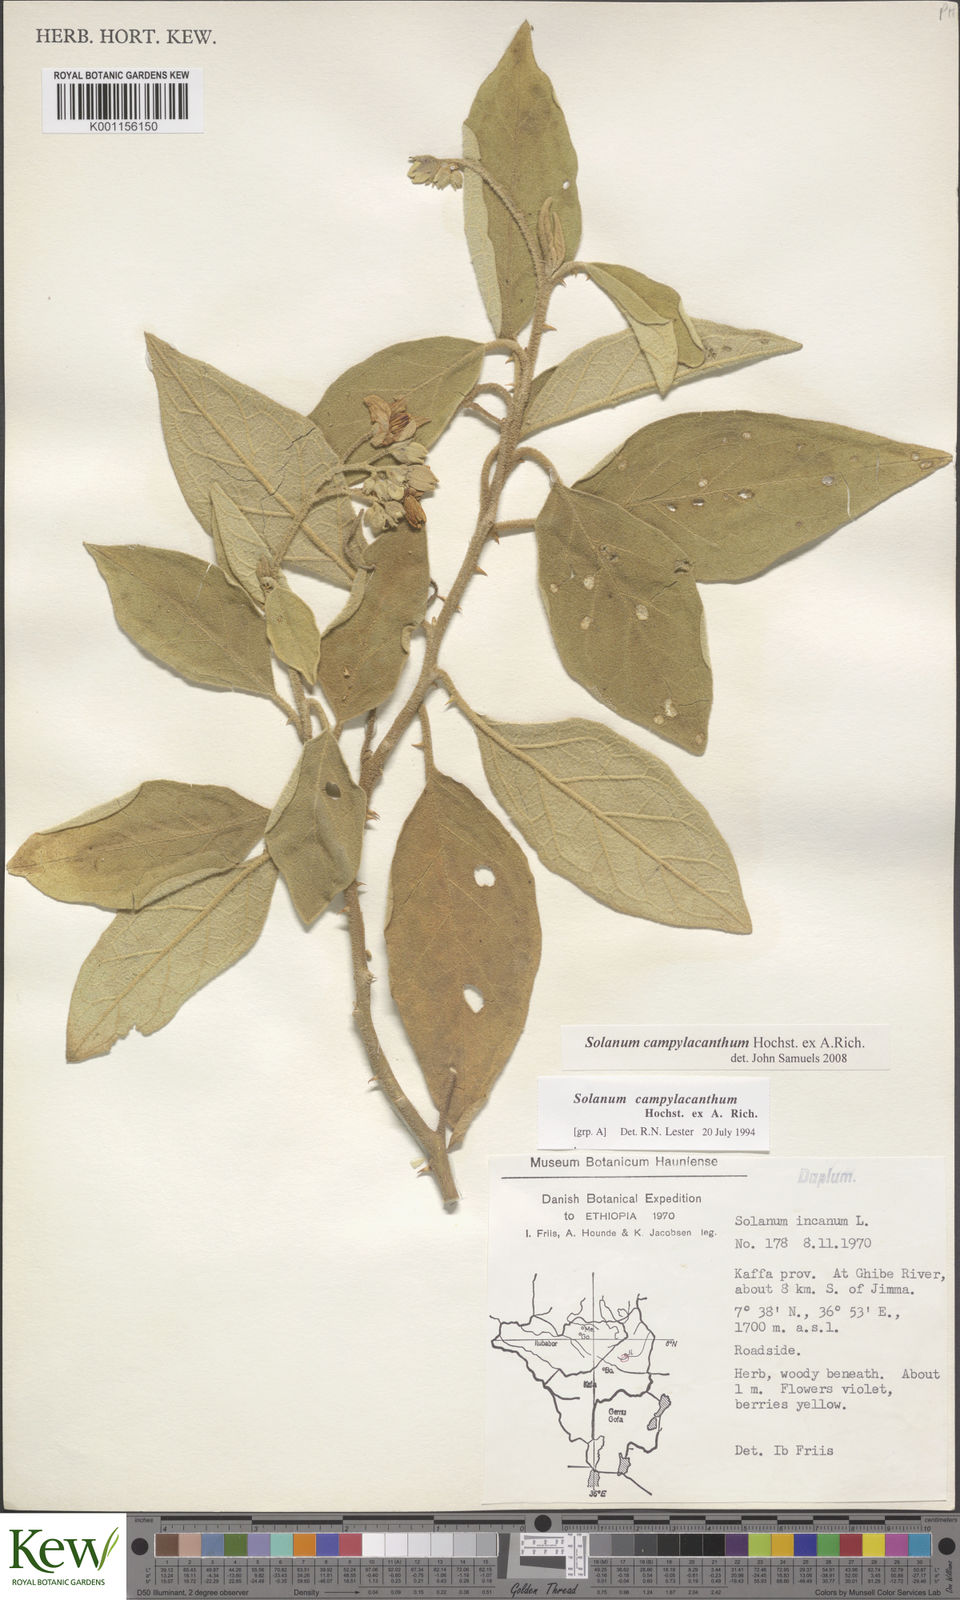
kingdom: Plantae
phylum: Tracheophyta
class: Magnoliopsida
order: Solanales
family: Solanaceae
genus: Solanum
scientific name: Solanum campylacanthum
